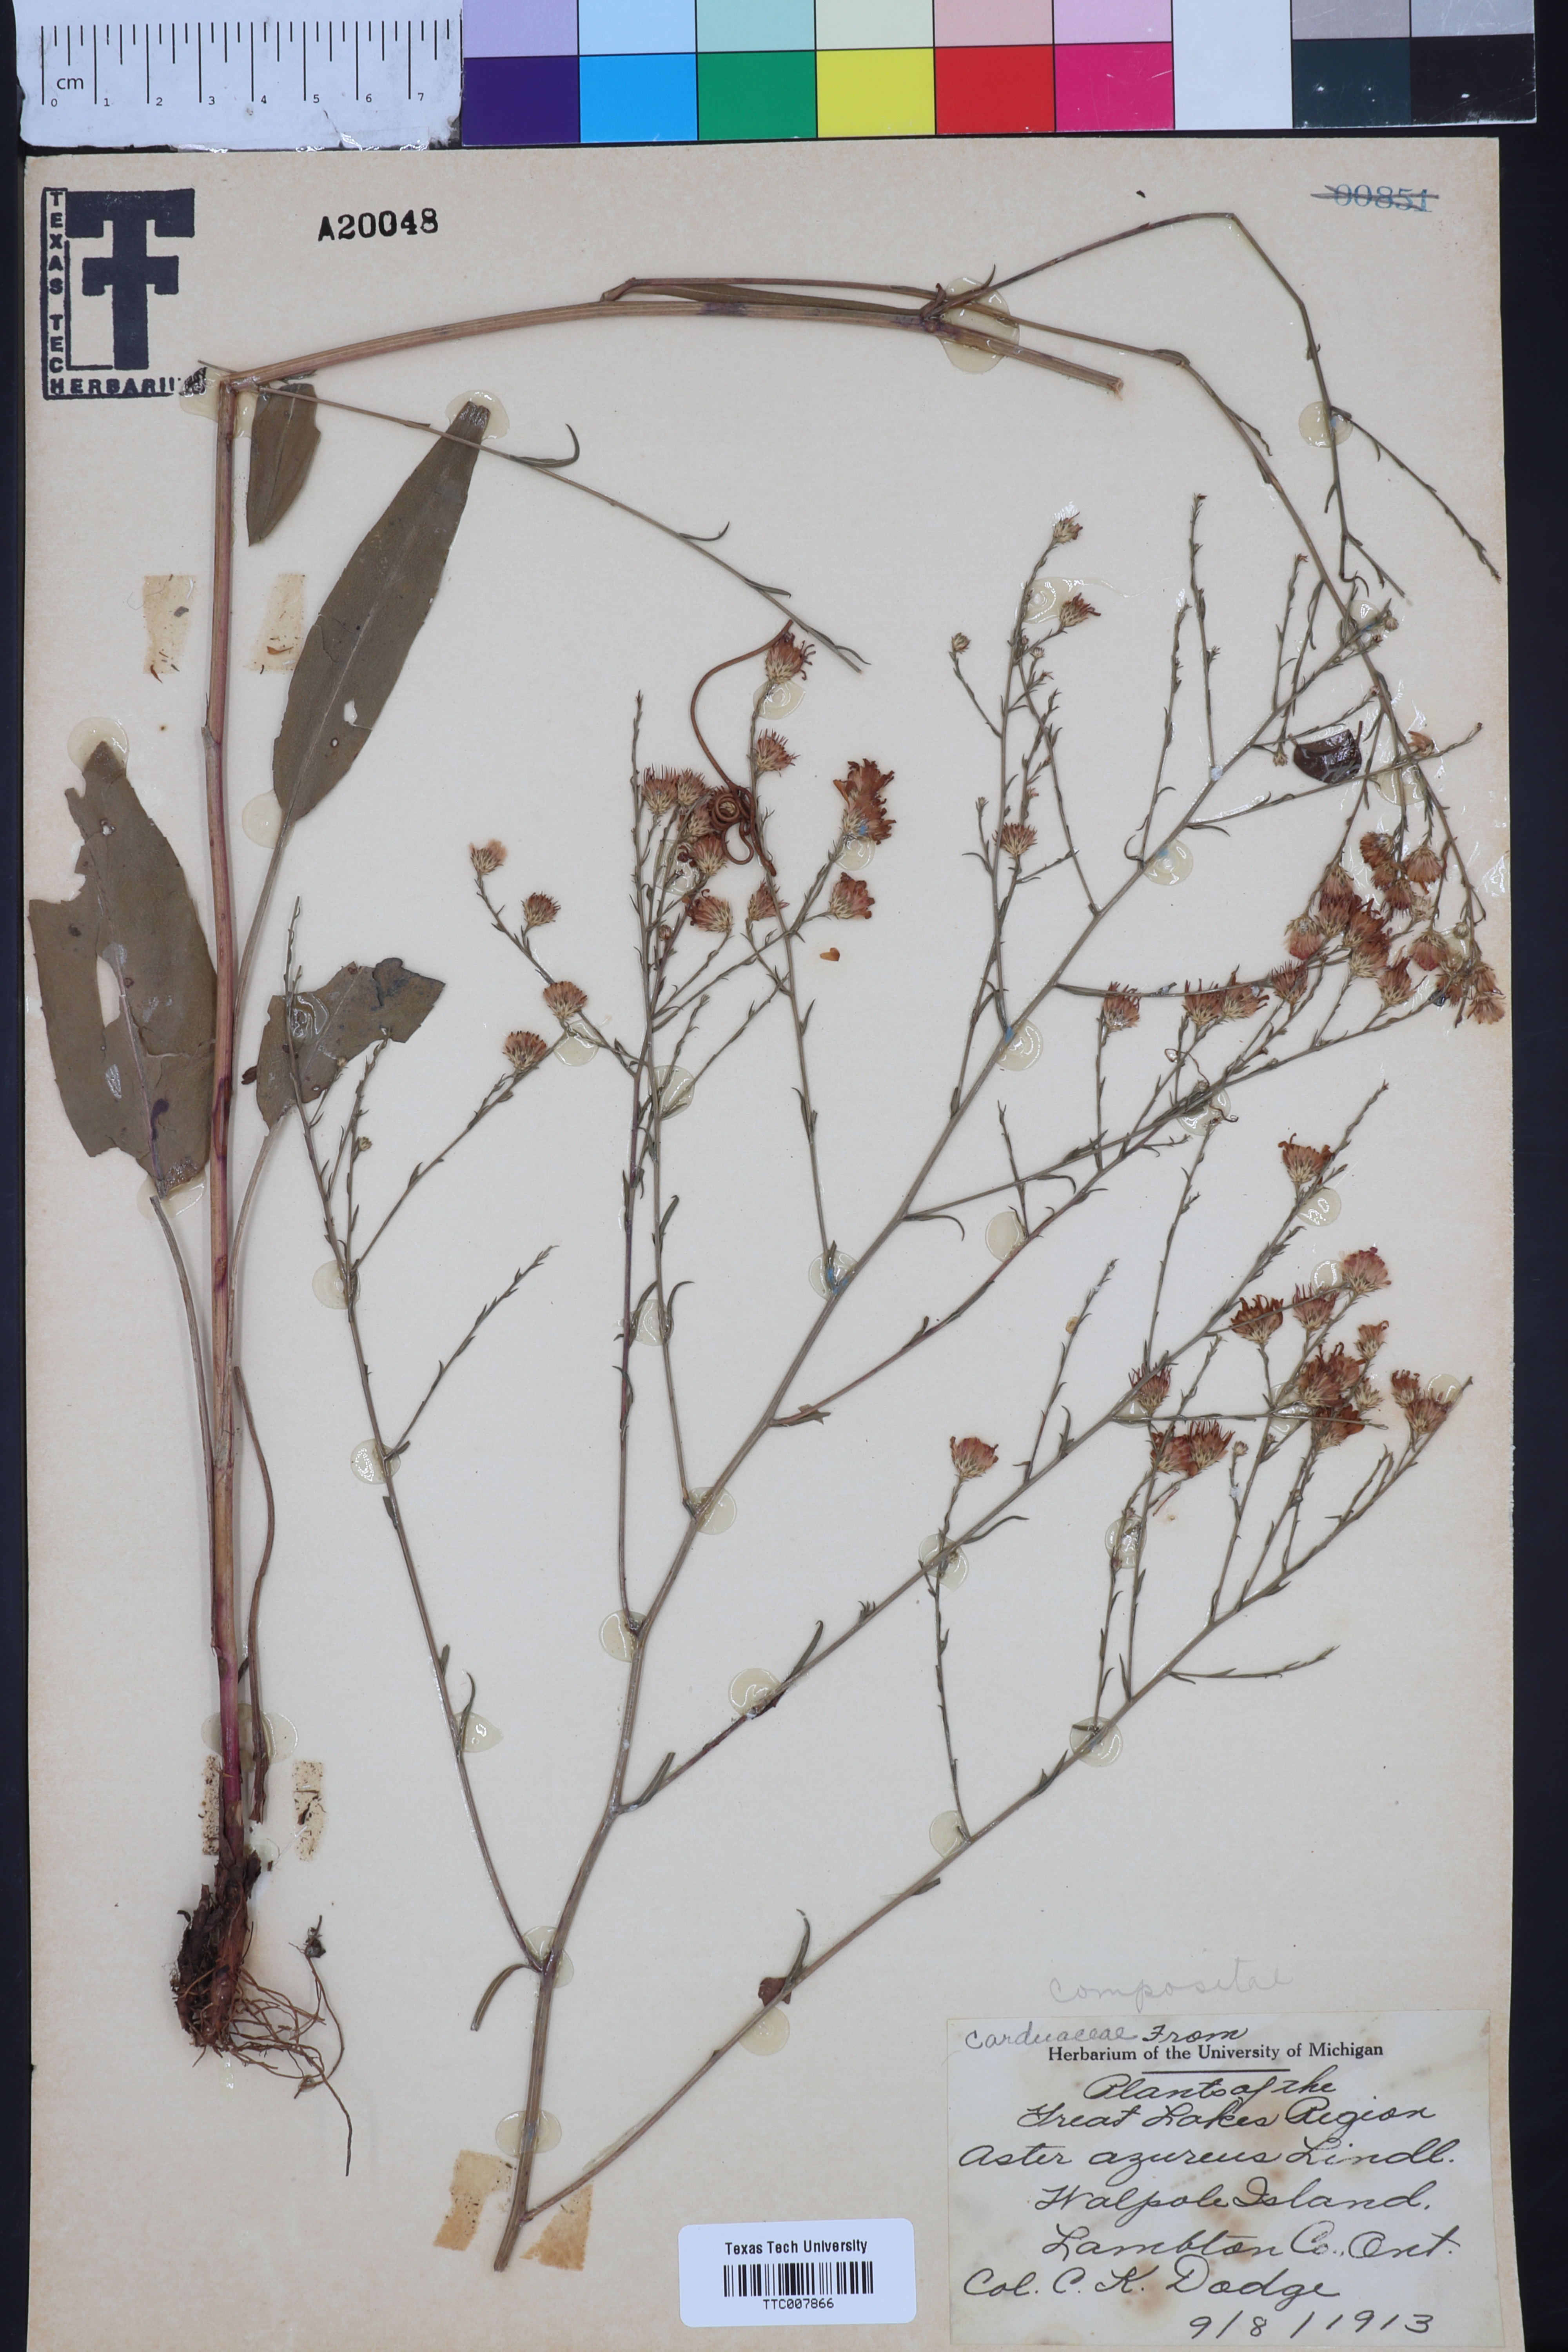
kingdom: Plantae
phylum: Tracheophyta
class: Magnoliopsida
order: Asterales
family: Asteraceae
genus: Symphyotrichum
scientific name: Symphyotrichum shortii
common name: Short's aster
